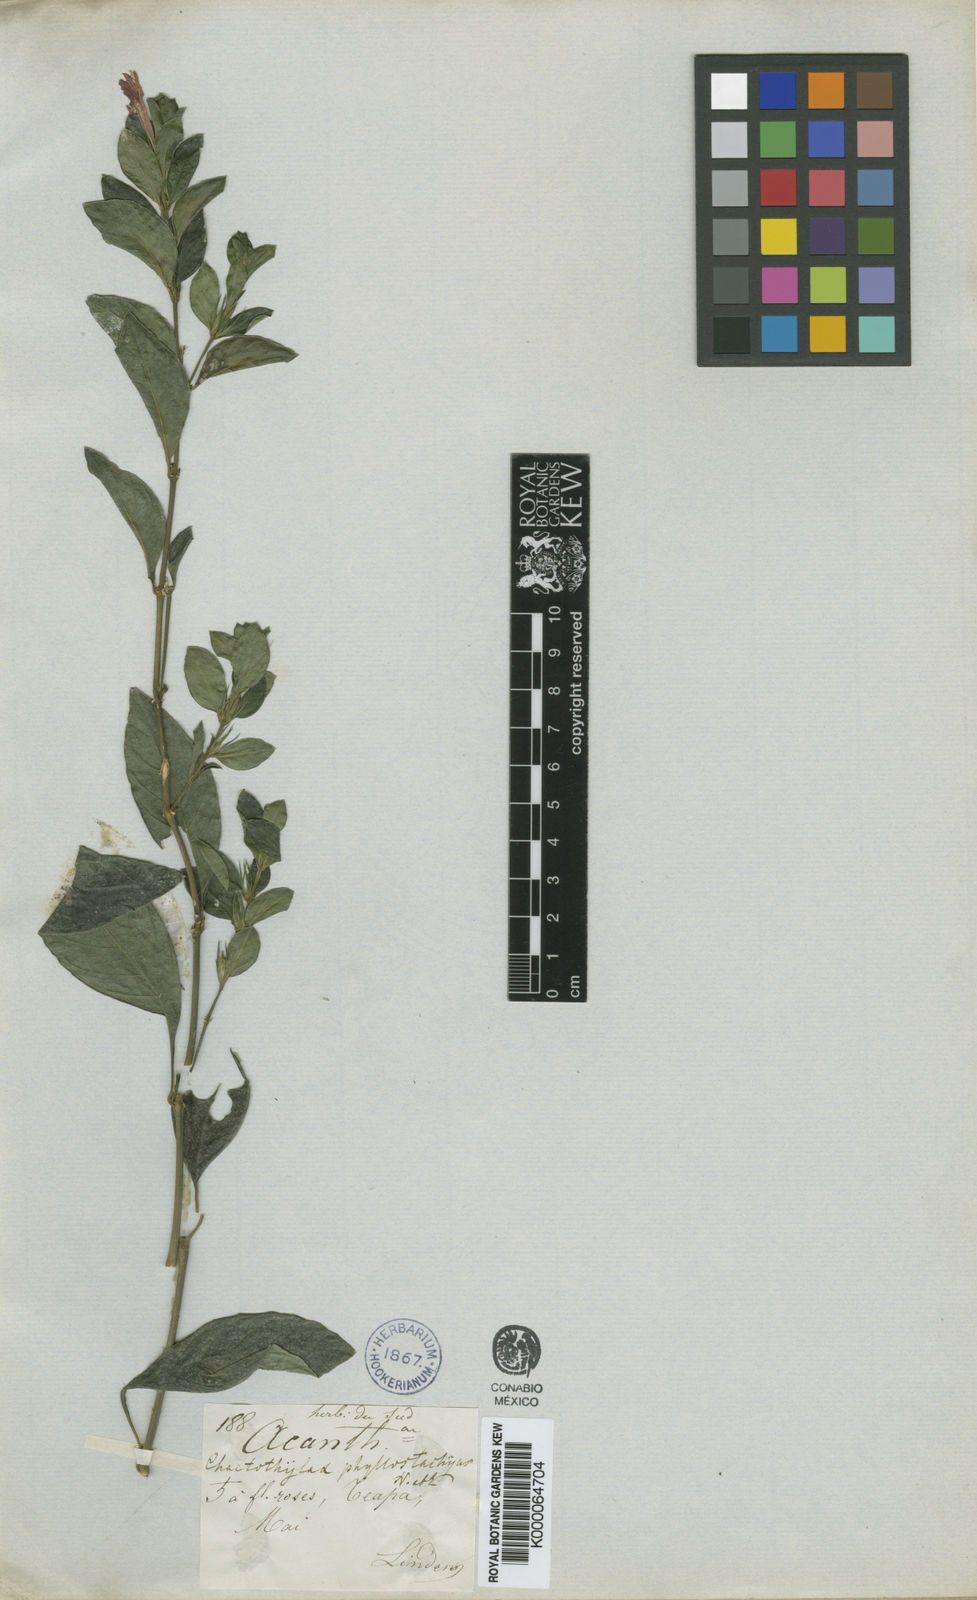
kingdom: Plantae
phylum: Tracheophyta
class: Magnoliopsida
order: Lamiales
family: Acanthaceae
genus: Justicia
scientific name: Justicia phyllostachys
